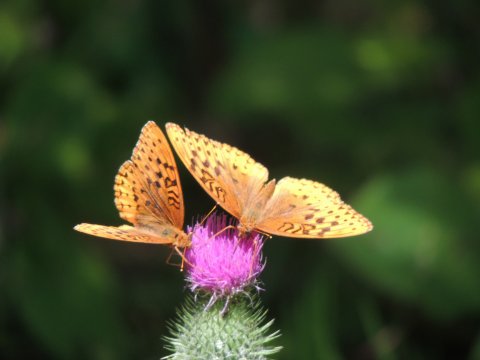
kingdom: Animalia
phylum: Arthropoda
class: Insecta
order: Lepidoptera
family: Nymphalidae
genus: Speyeria
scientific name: Speyeria cybele
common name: Great Spangled Fritillary
